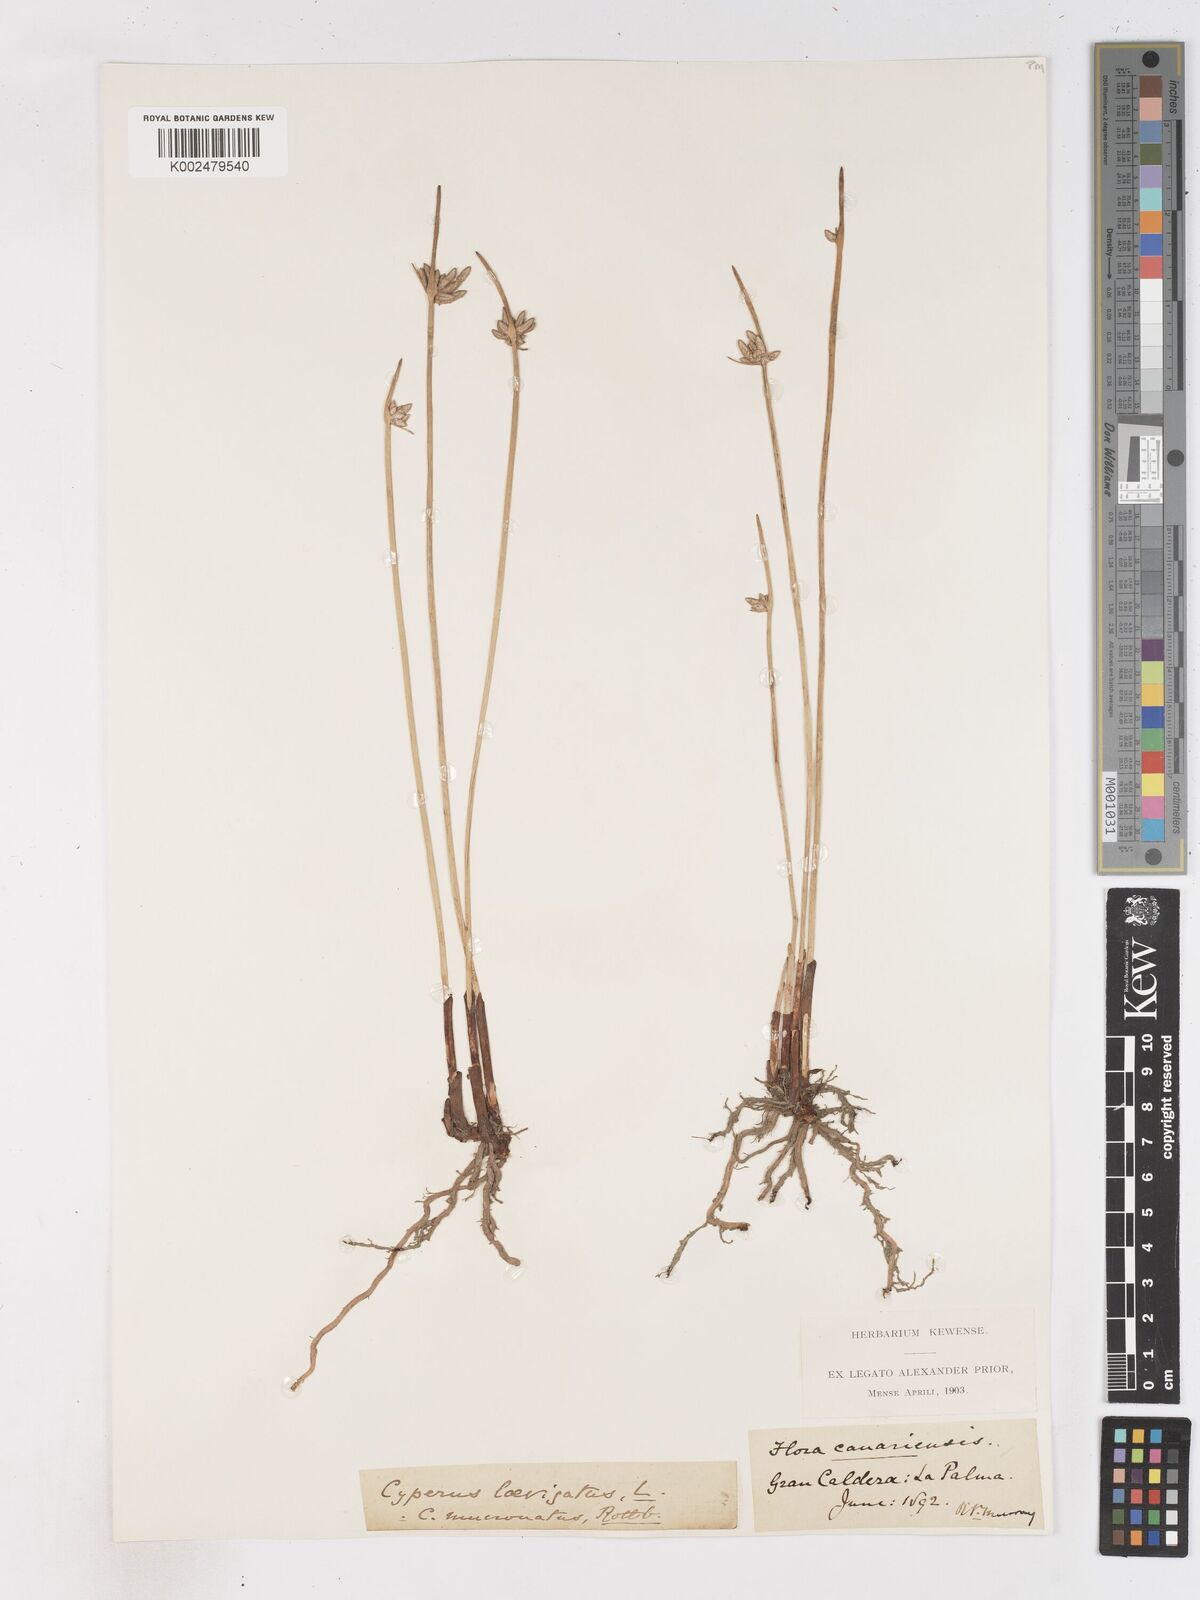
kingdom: Plantae
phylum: Tracheophyta
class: Liliopsida
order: Poales
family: Cyperaceae
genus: Cyperus
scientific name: Cyperus laevigatus
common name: Smooth flat sedge
